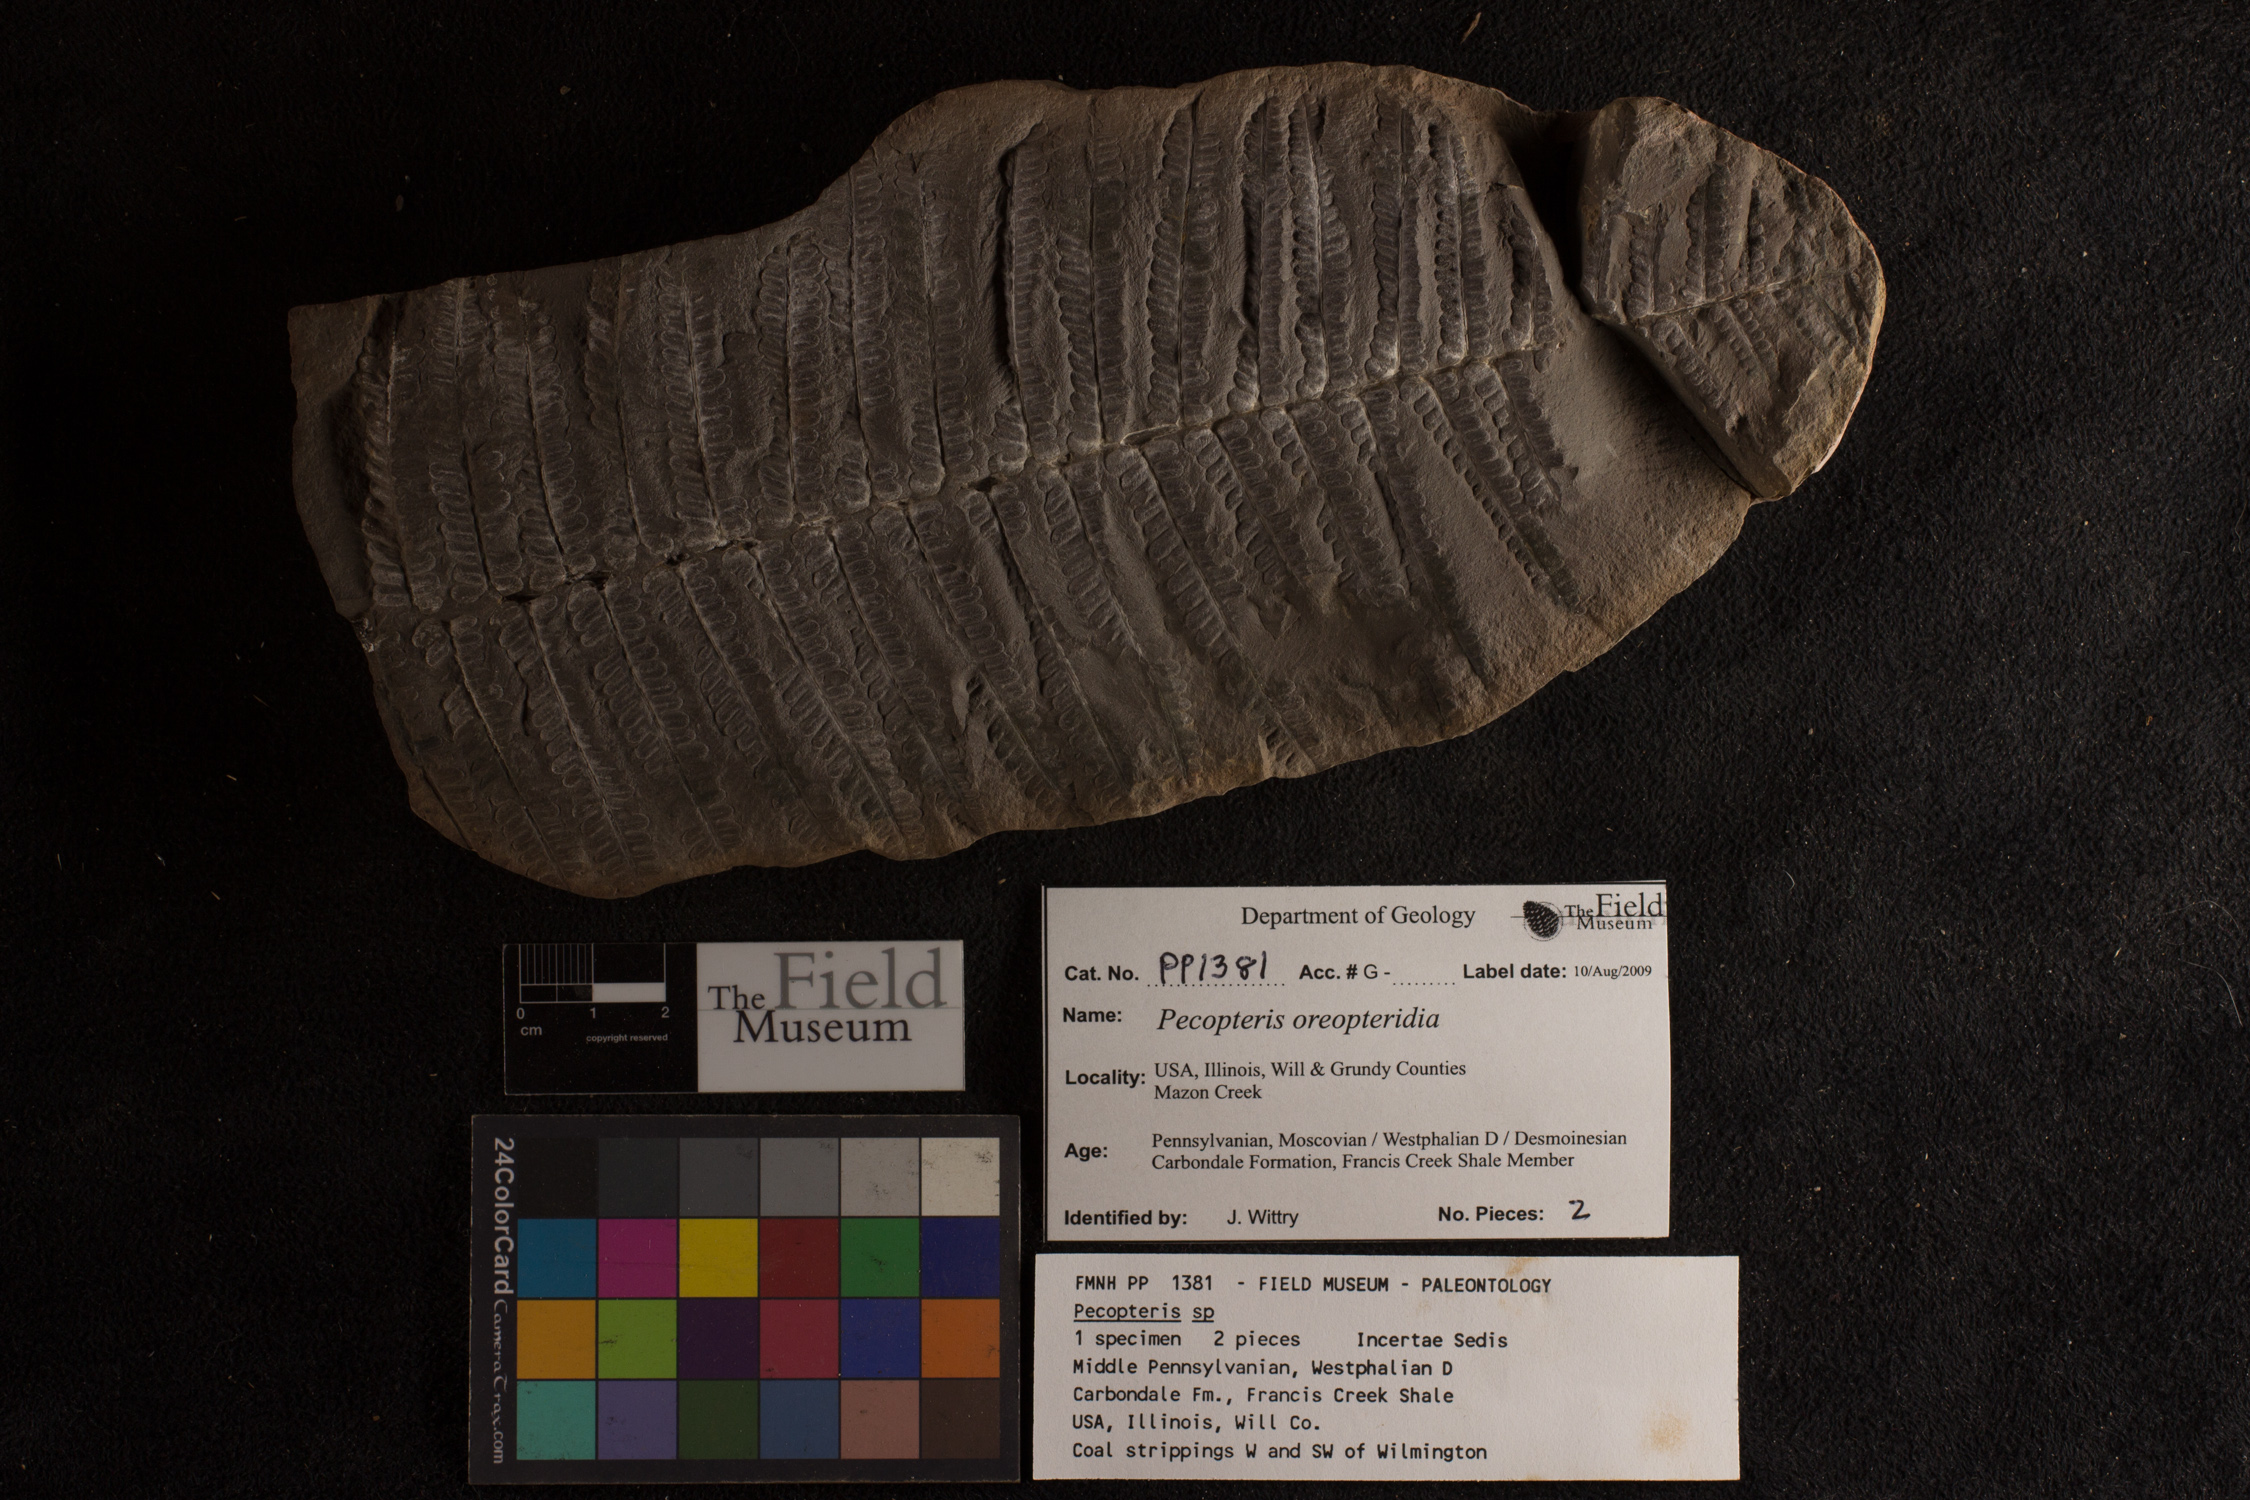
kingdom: Plantae
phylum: Tracheophyta
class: Polypodiopsida
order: Marattiales
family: Asterothecaceae
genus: Pecopteris
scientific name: Pecopteris
